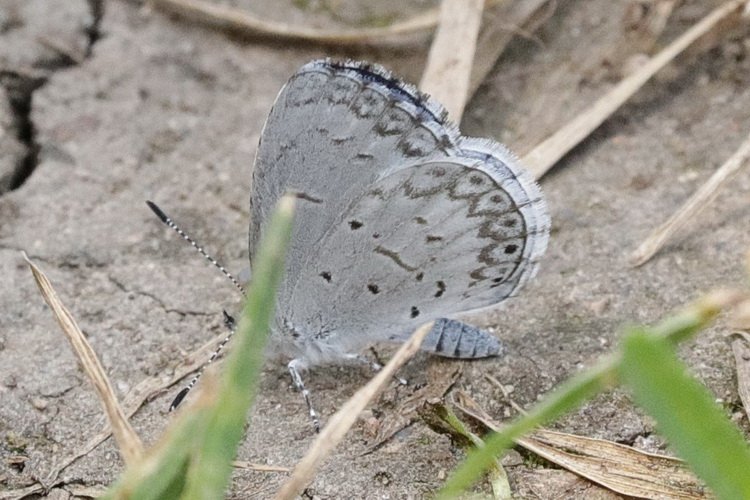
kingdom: Animalia
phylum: Arthropoda
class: Insecta
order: Lepidoptera
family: Lycaenidae
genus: Celastrina
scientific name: Celastrina lucia
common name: Northern Spring Azure
